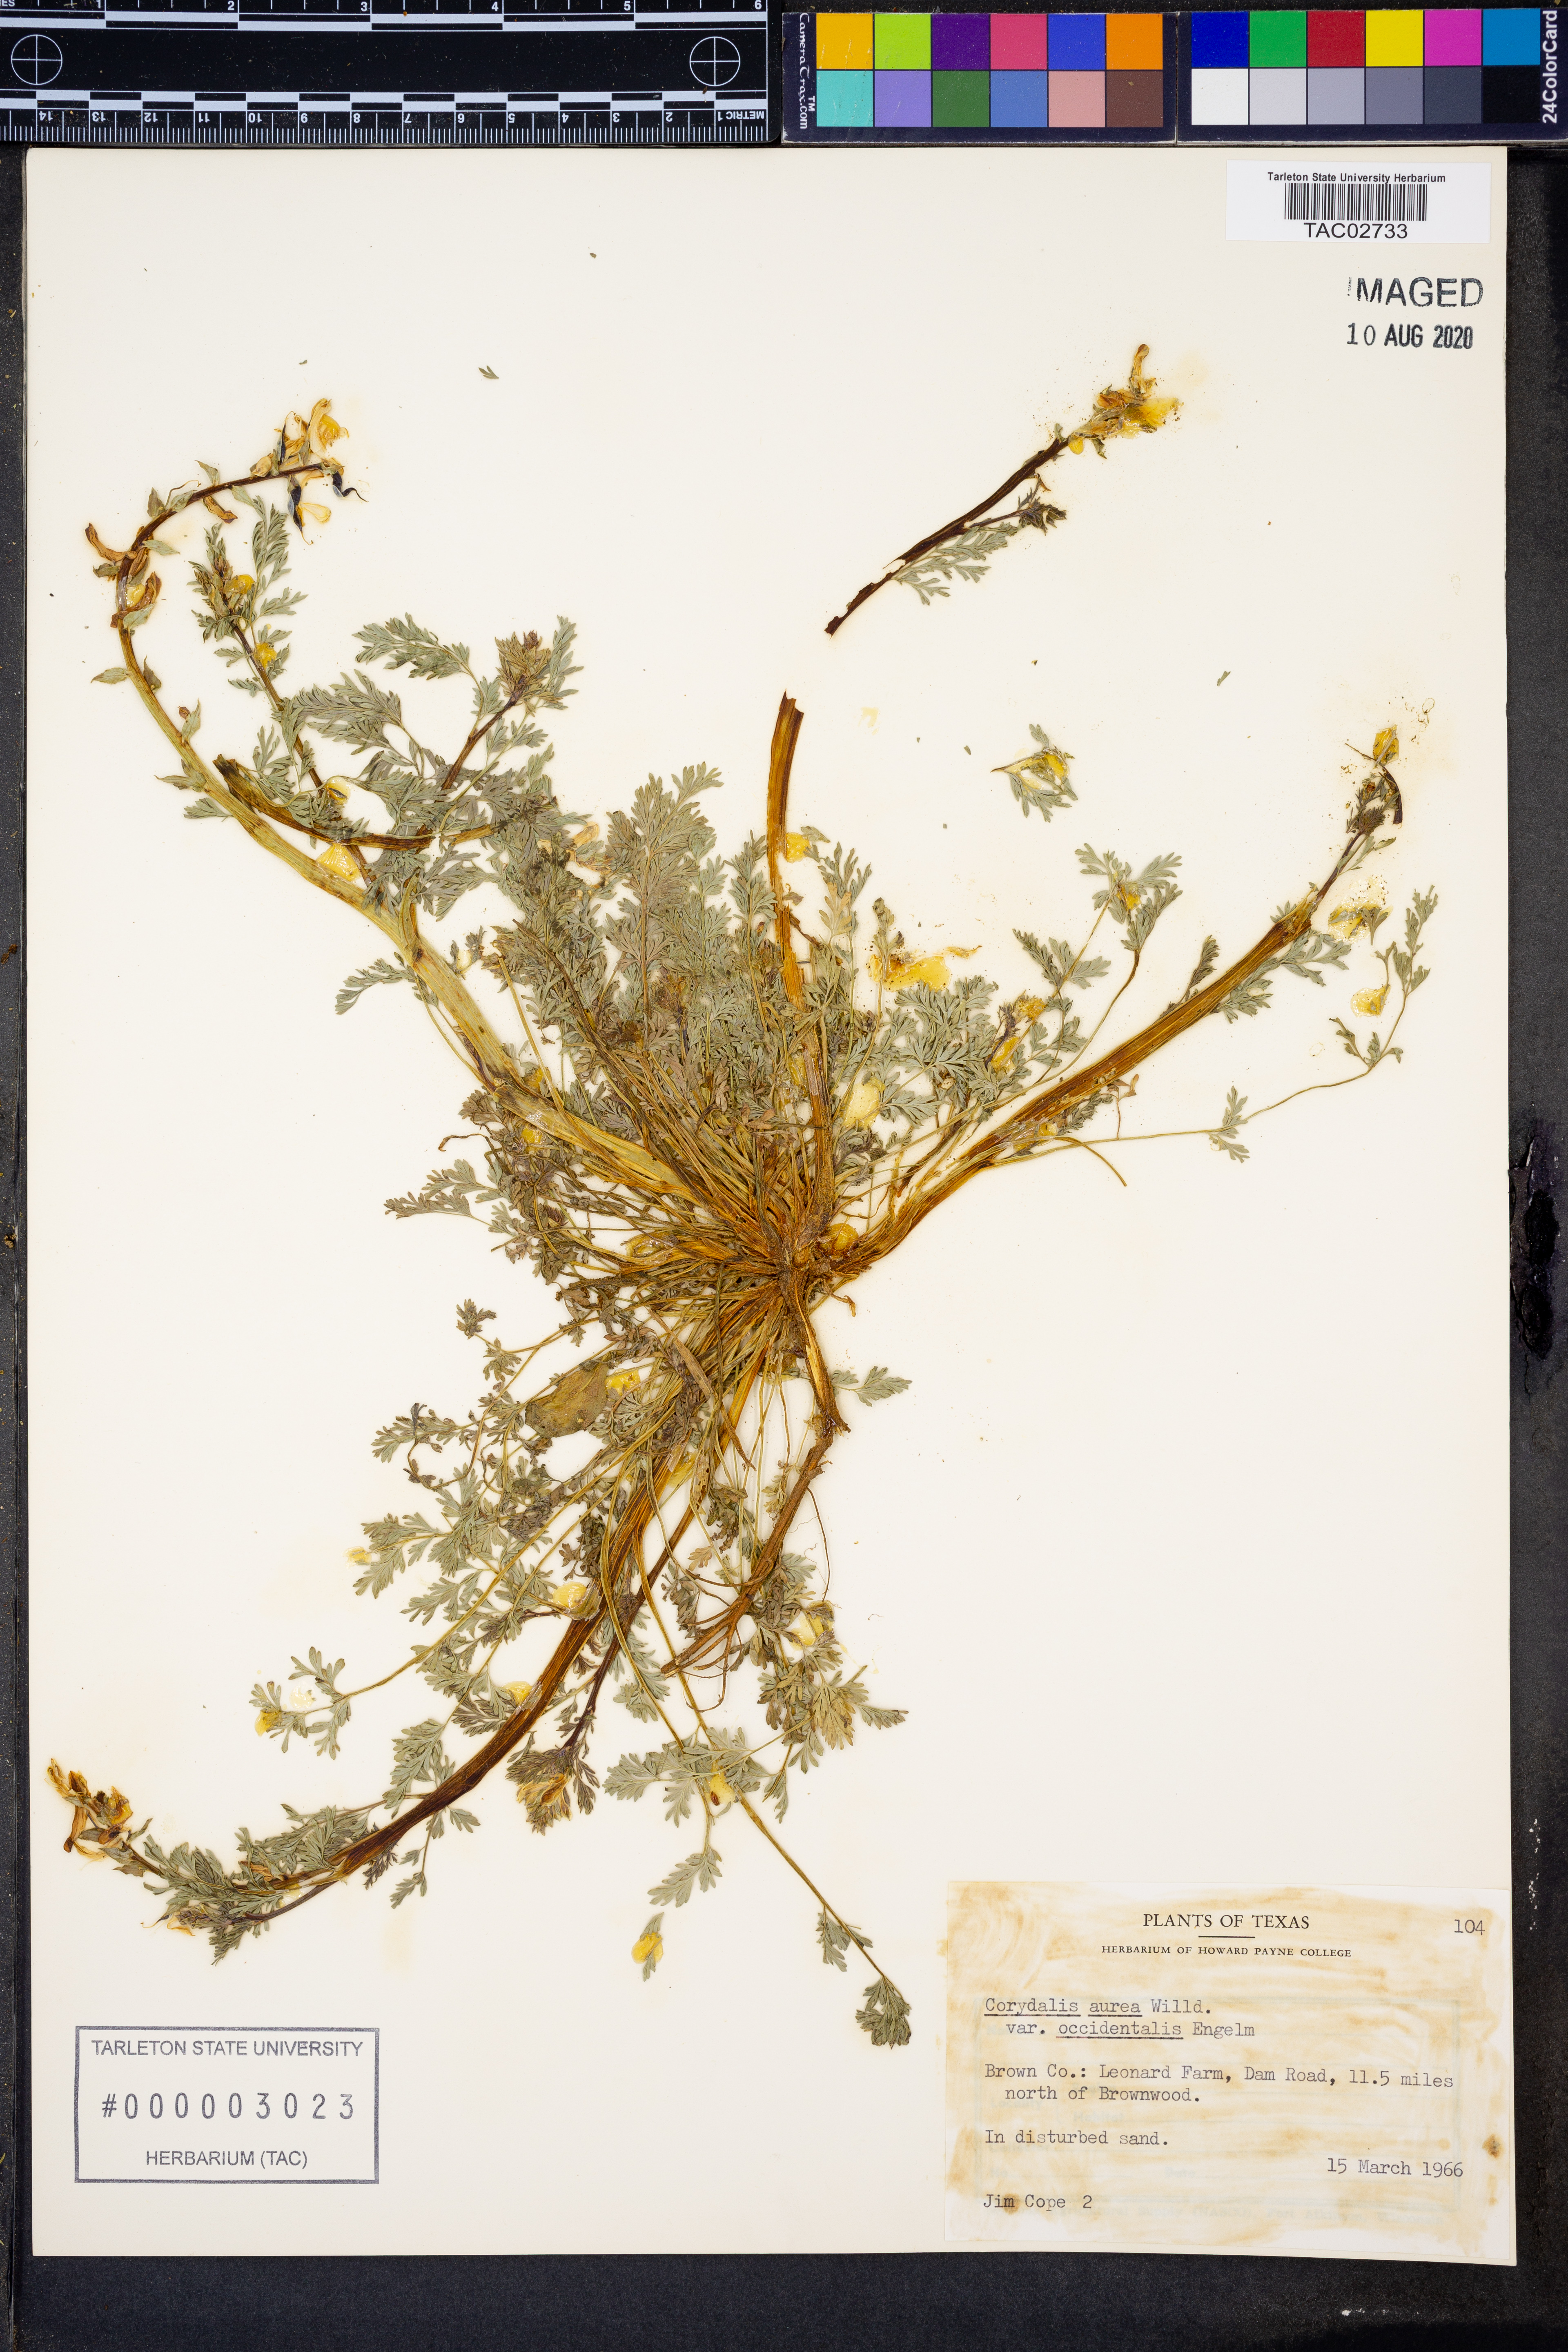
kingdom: Plantae
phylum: Tracheophyta
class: Magnoliopsida
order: Ranunculales
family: Papaveraceae
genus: Corydalis
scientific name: Corydalis curvisiliqua
